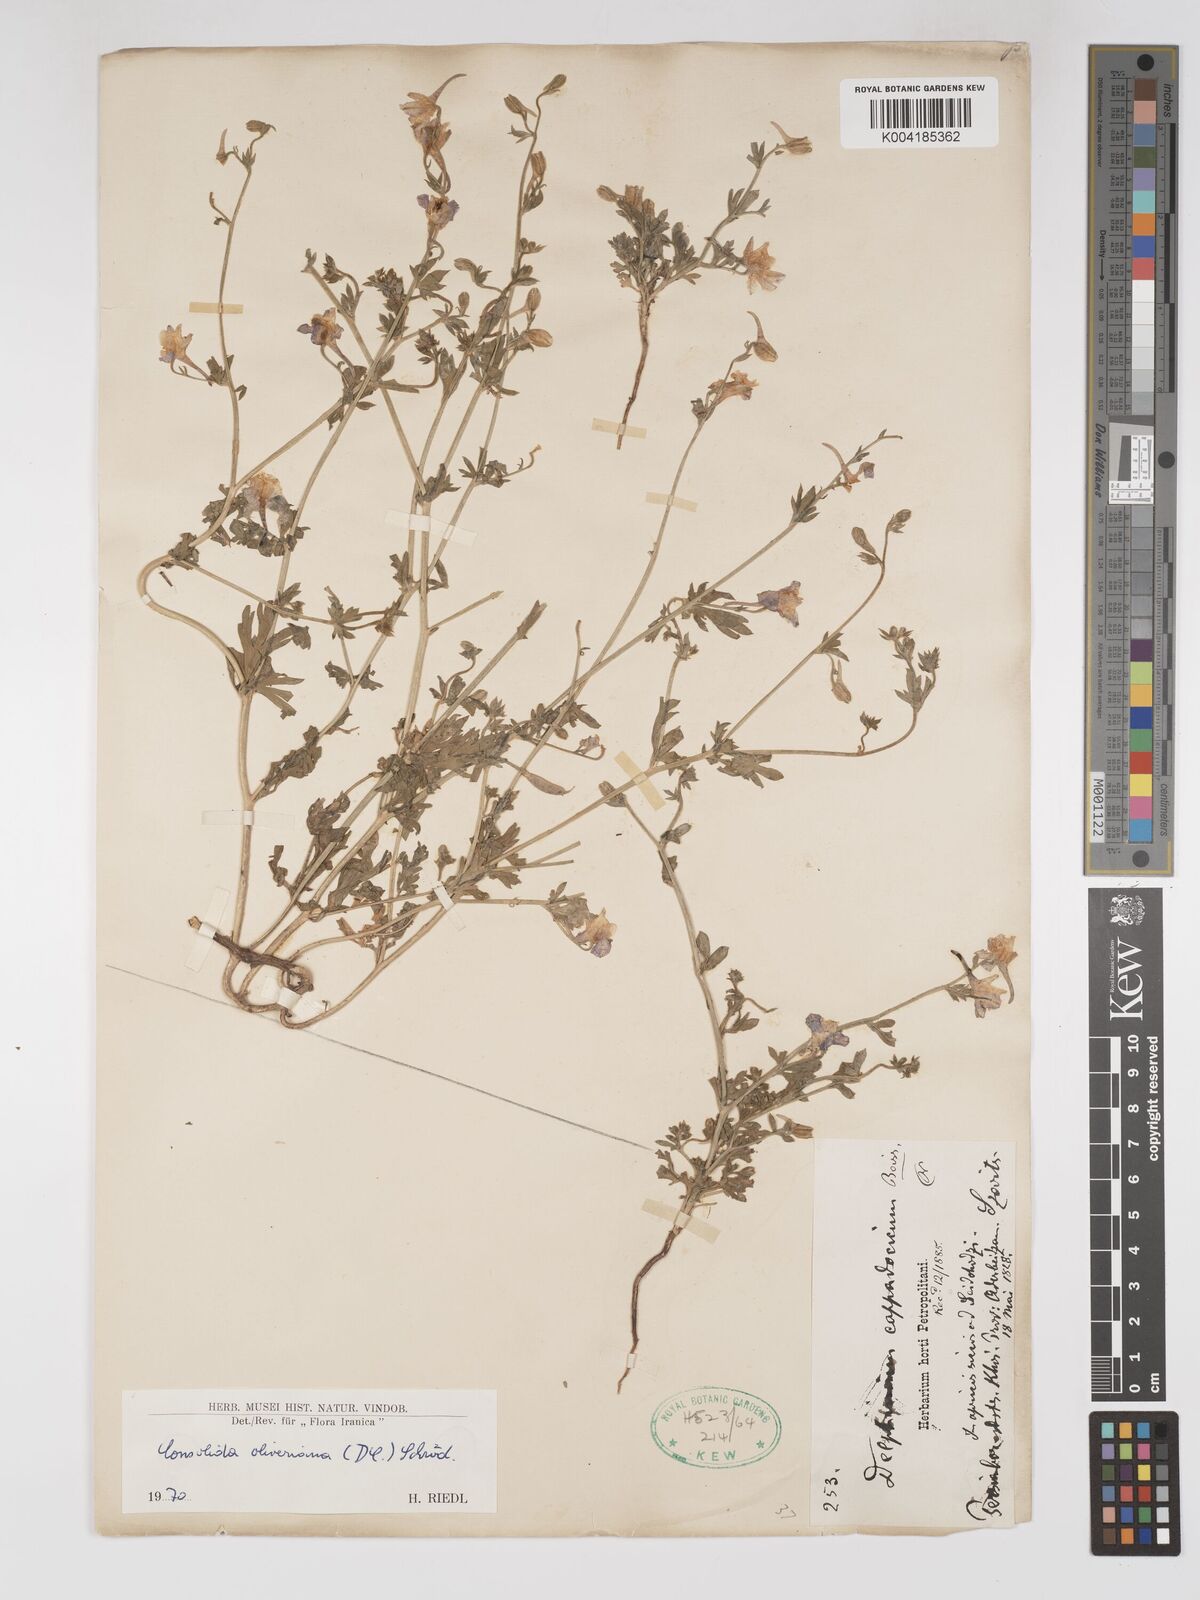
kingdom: Plantae
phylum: Tracheophyta
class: Magnoliopsida
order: Ranunculales
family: Ranunculaceae
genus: Delphinium
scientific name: Delphinium oliverianum
